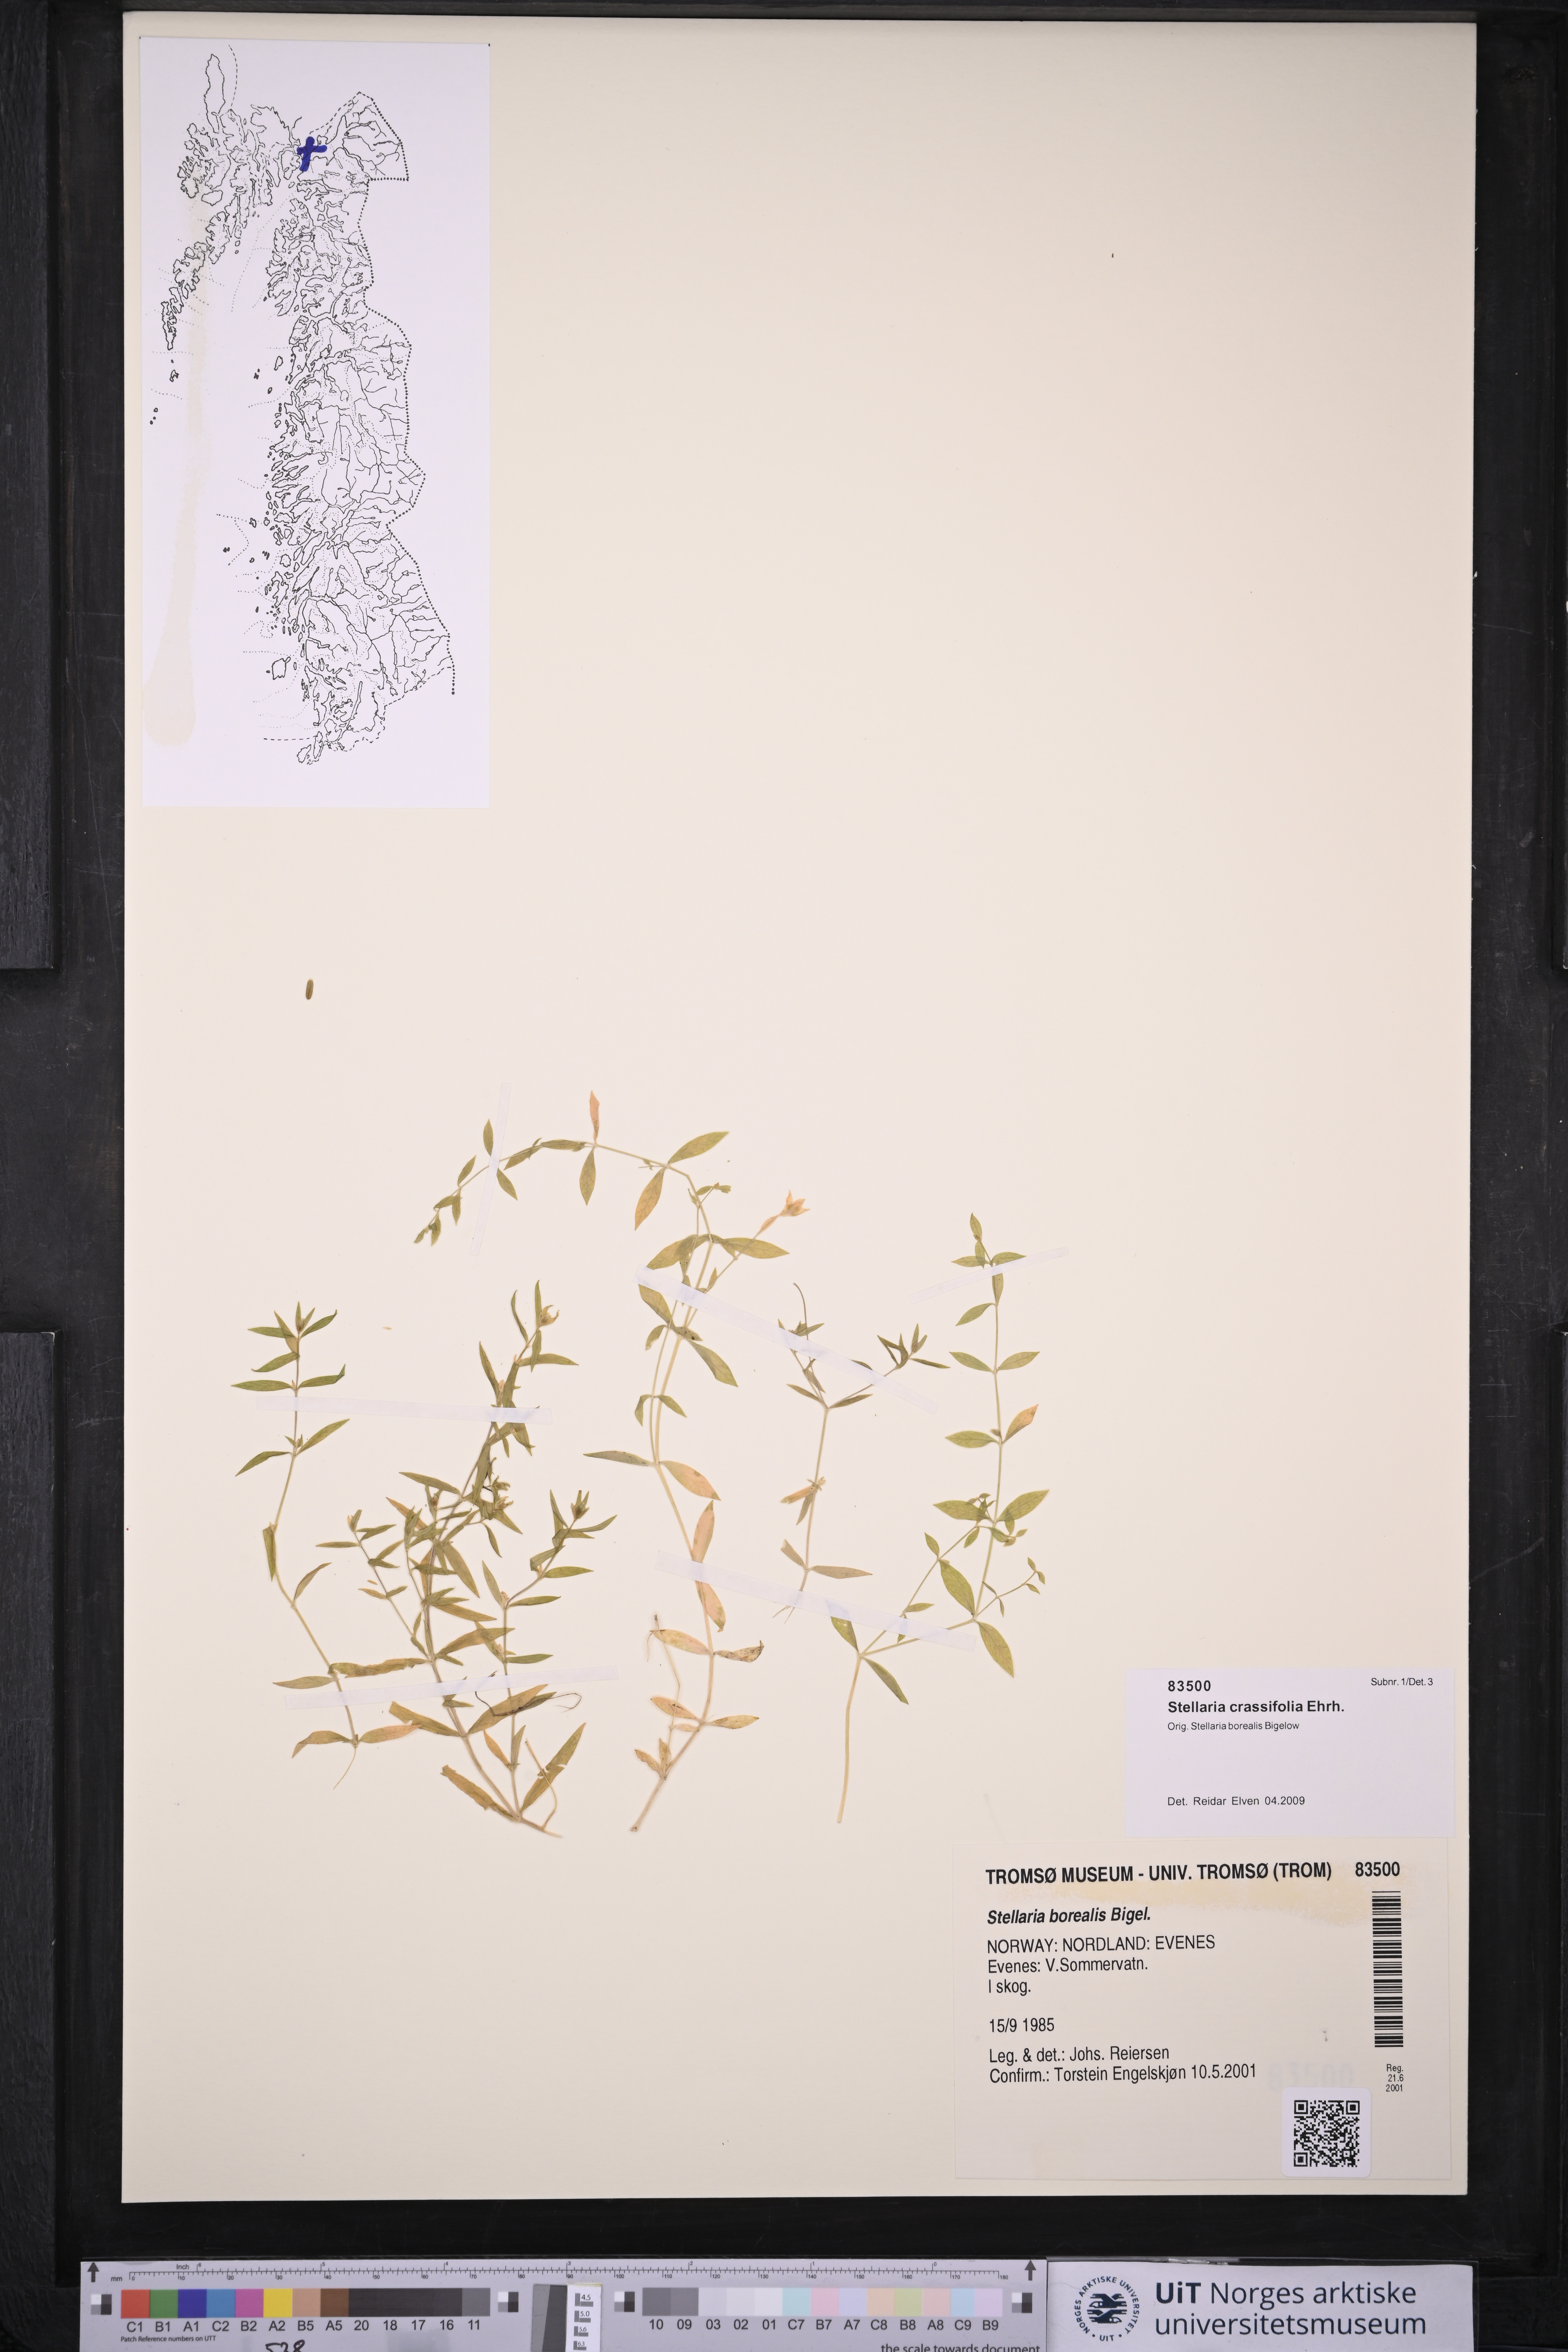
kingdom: Plantae
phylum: Tracheophyta
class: Magnoliopsida
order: Caryophyllales
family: Caryophyllaceae
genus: Stellaria
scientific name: Stellaria crassifolia
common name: Fleshy starwort
